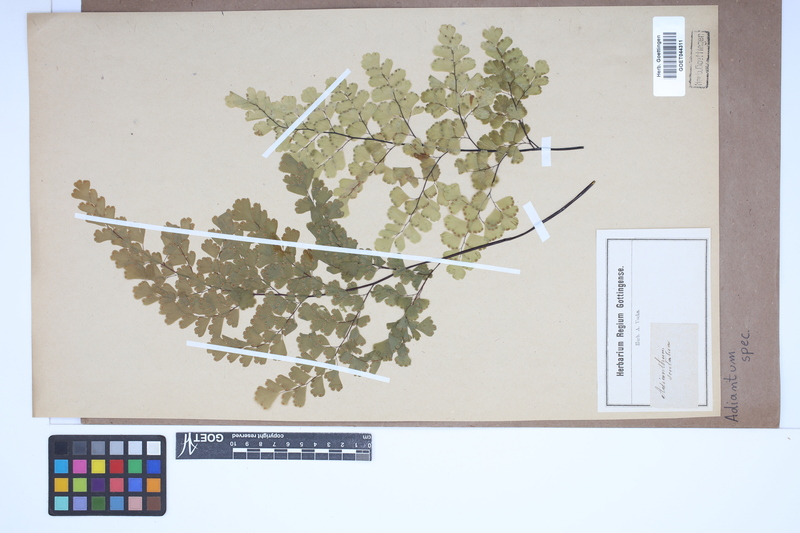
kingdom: Plantae
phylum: Tracheophyta
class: Polypodiopsida
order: Polypodiales
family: Pteridaceae
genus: Adiantum
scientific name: Adiantum
